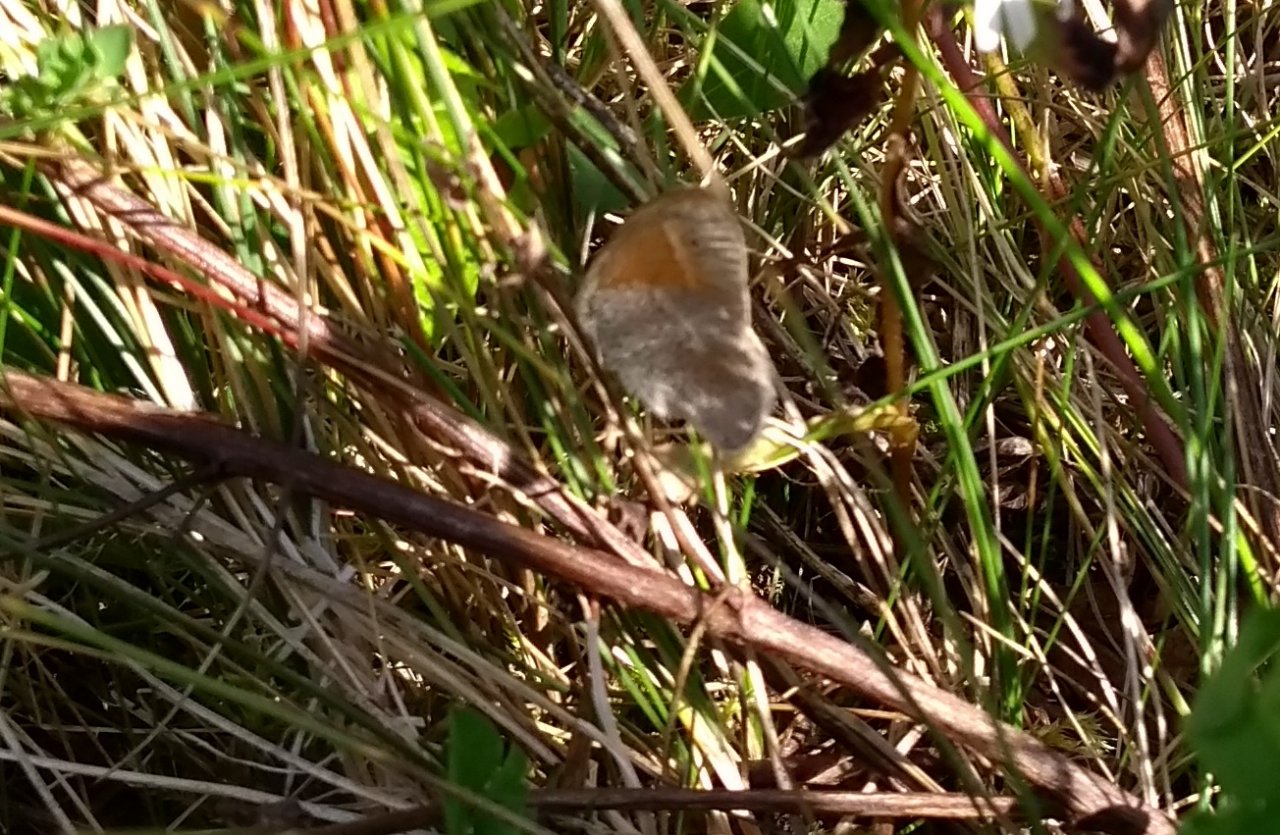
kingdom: Animalia
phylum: Arthropoda
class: Insecta
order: Lepidoptera
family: Nymphalidae
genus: Coenonympha
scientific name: Coenonympha tullia
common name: Large Heath
